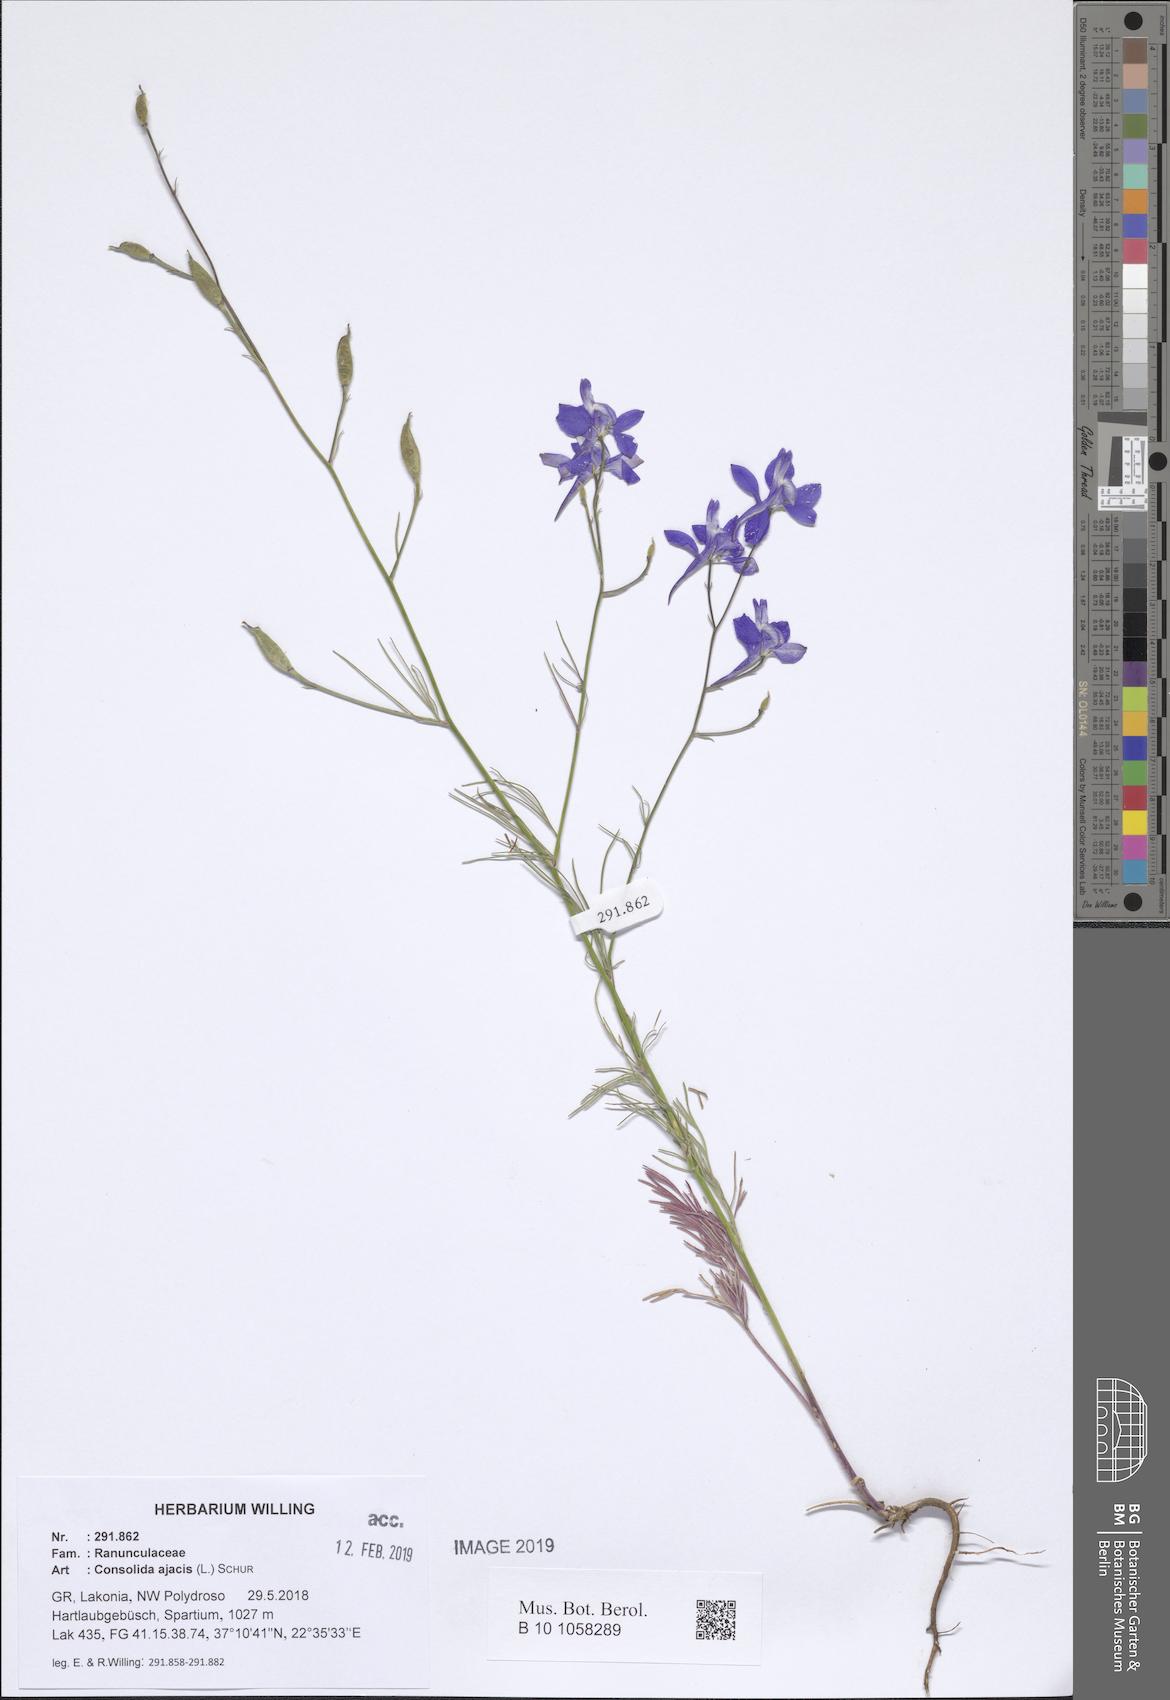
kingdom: Plantae
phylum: Tracheophyta
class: Magnoliopsida
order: Ranunculales
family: Ranunculaceae
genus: Delphinium
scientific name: Delphinium ajacis
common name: Doubtful knight's-spur
